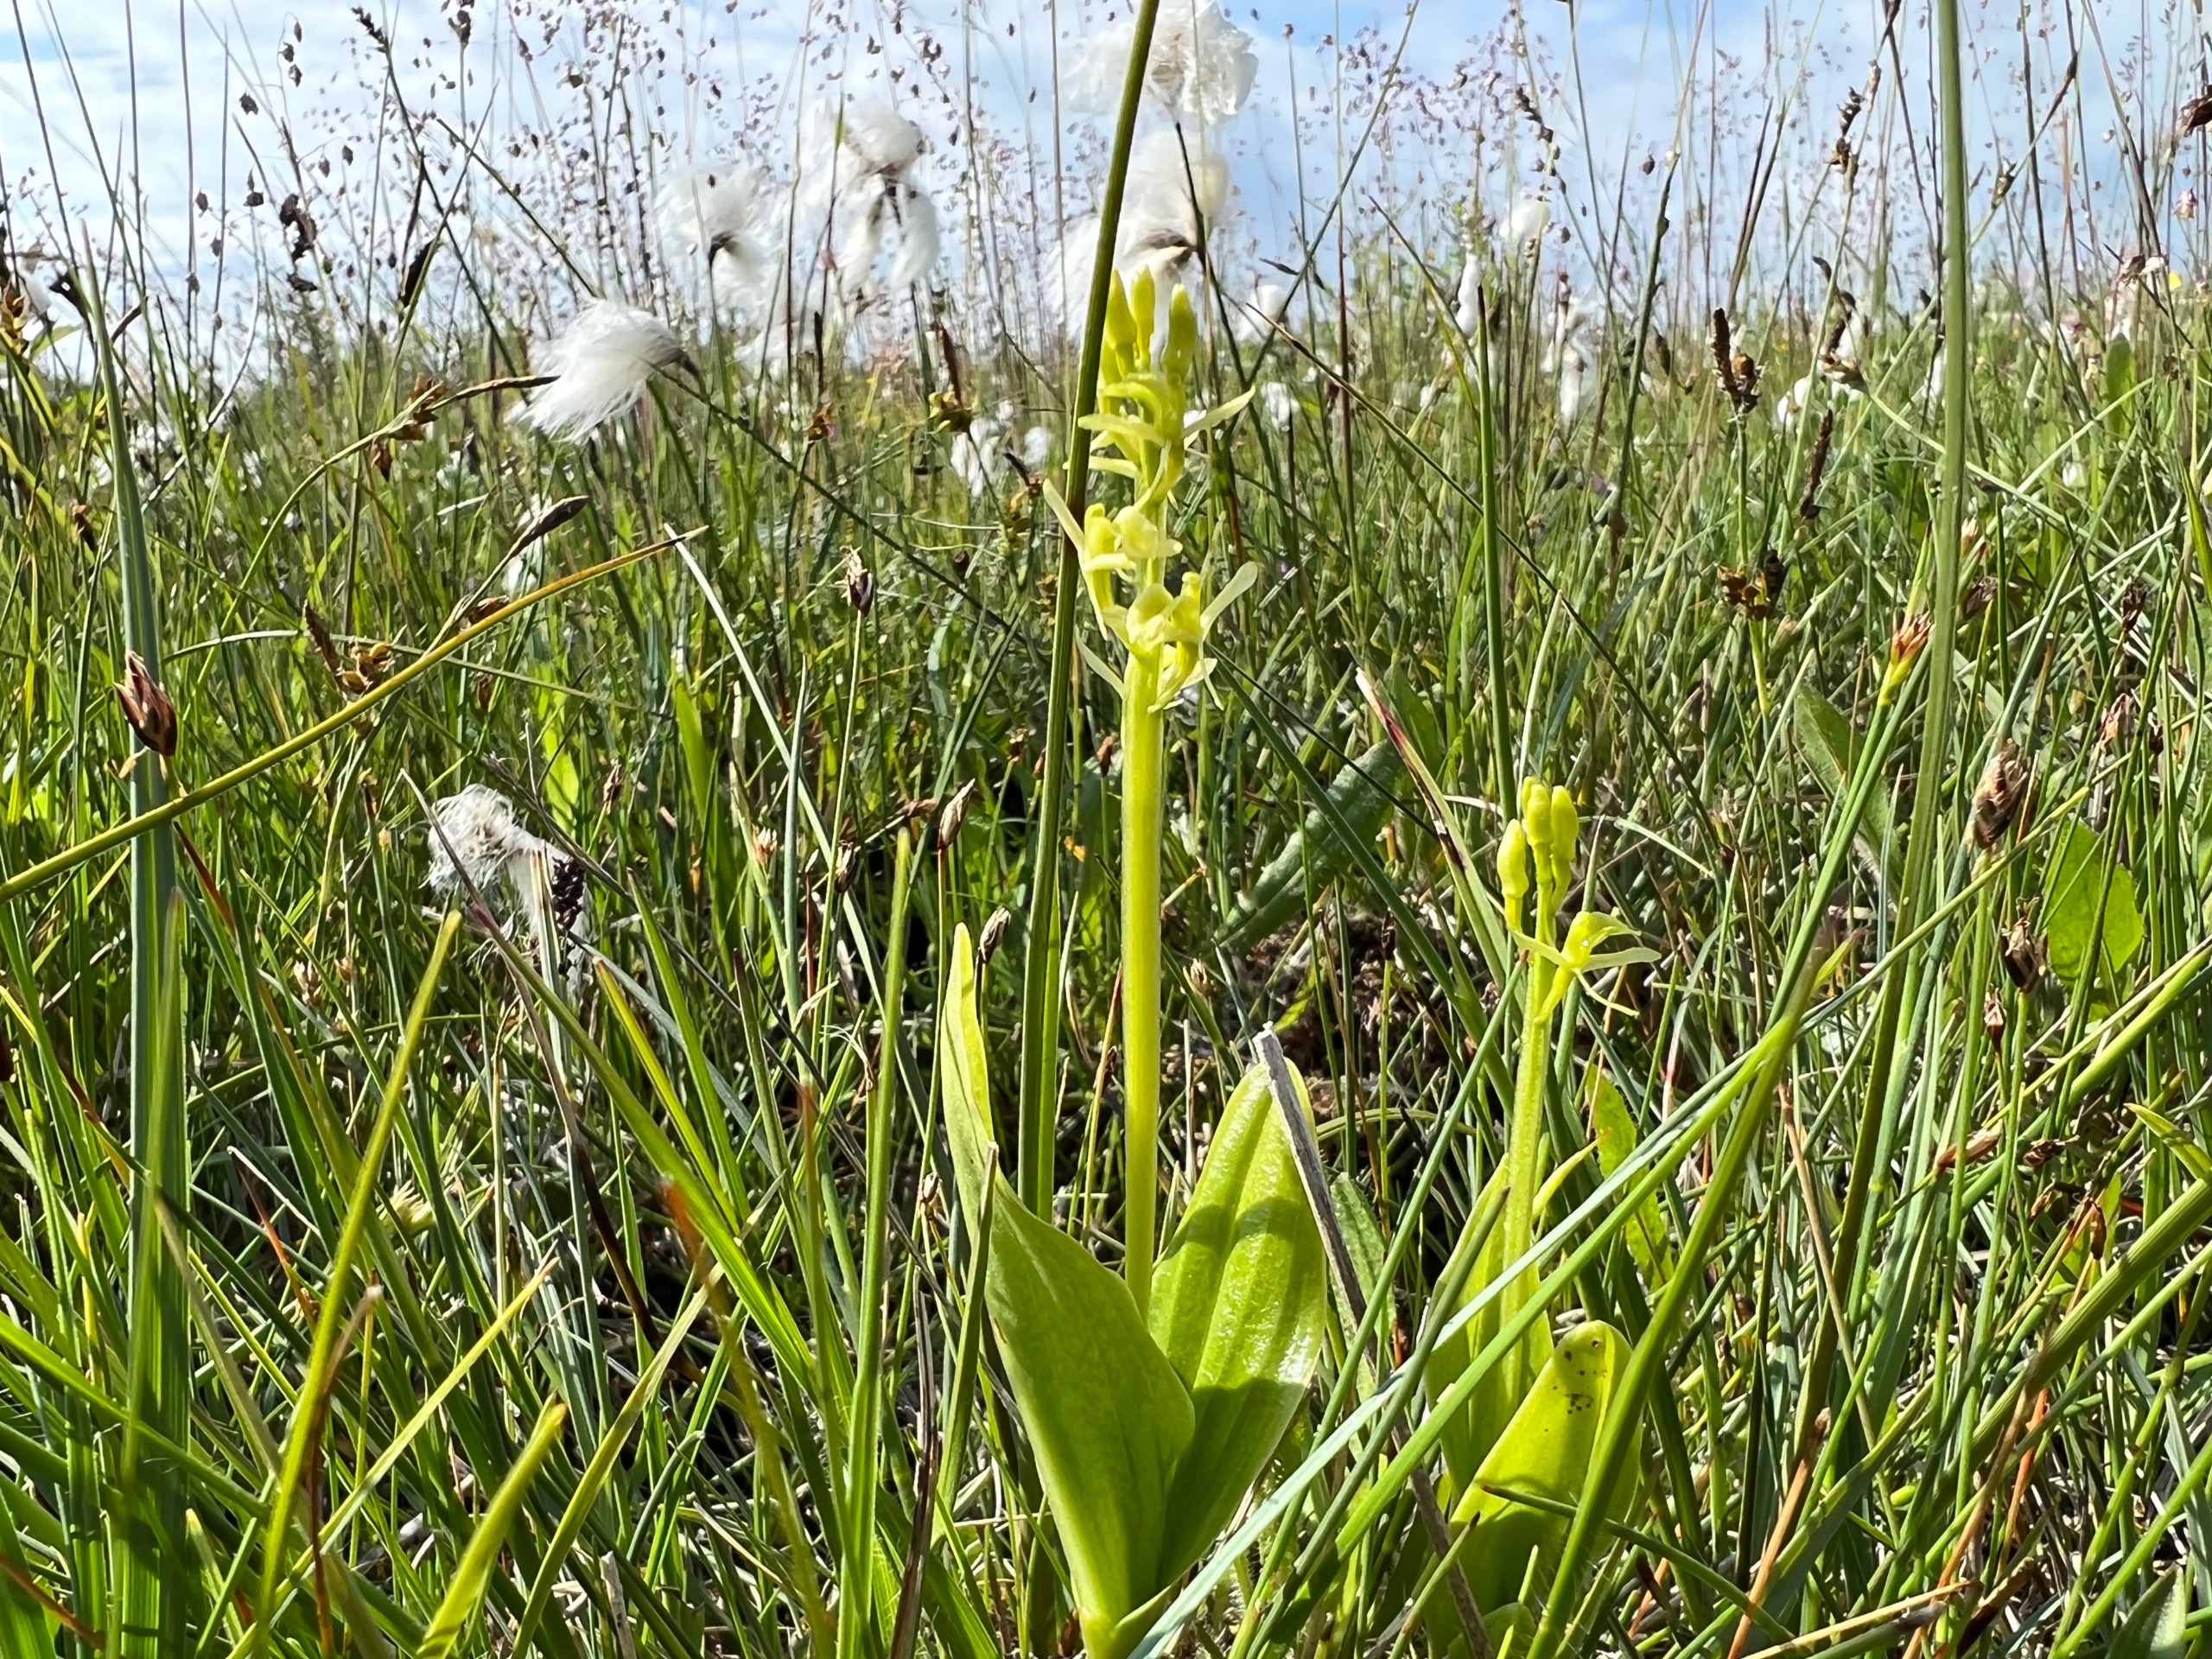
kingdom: Animalia
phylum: Arthropoda
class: Insecta
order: Coleoptera
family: Curculionidae
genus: Liparis
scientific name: Liparis loeselii
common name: Mygblomst
